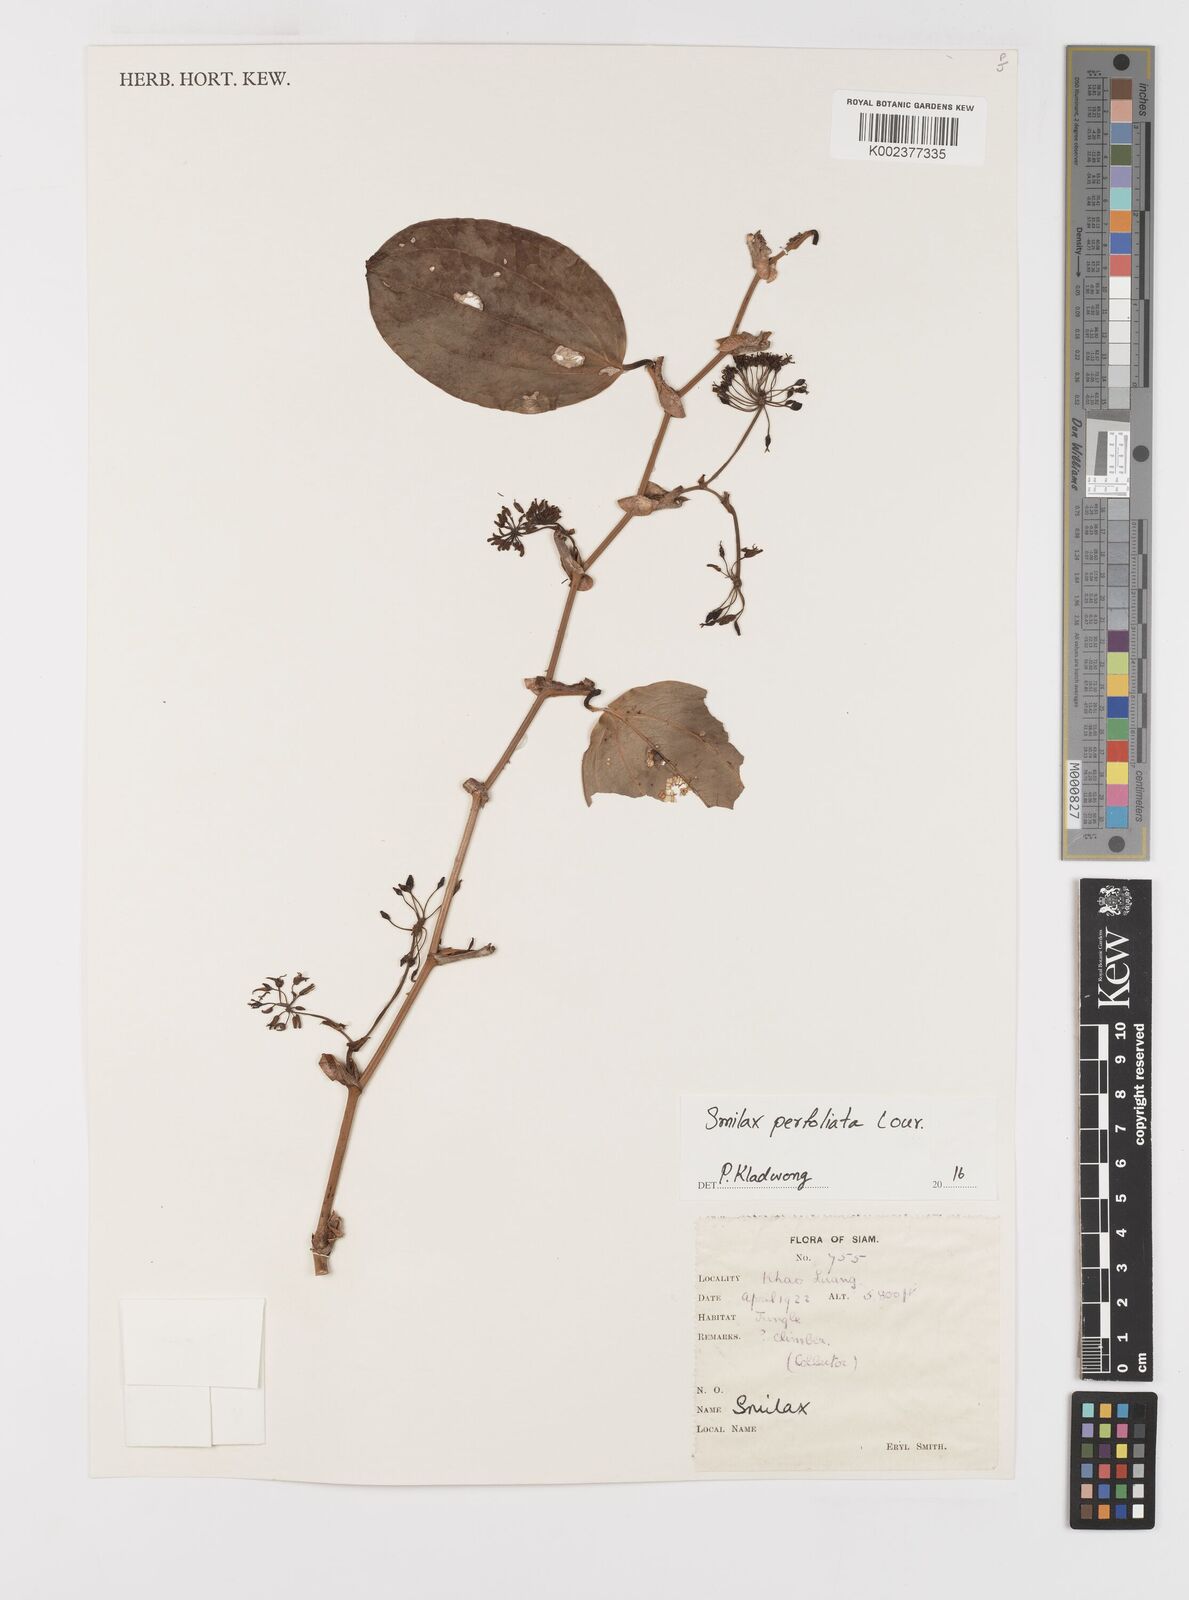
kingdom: Plantae
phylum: Tracheophyta
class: Liliopsida
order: Liliales
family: Smilacaceae
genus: Smilax
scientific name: Smilax perfoliata
